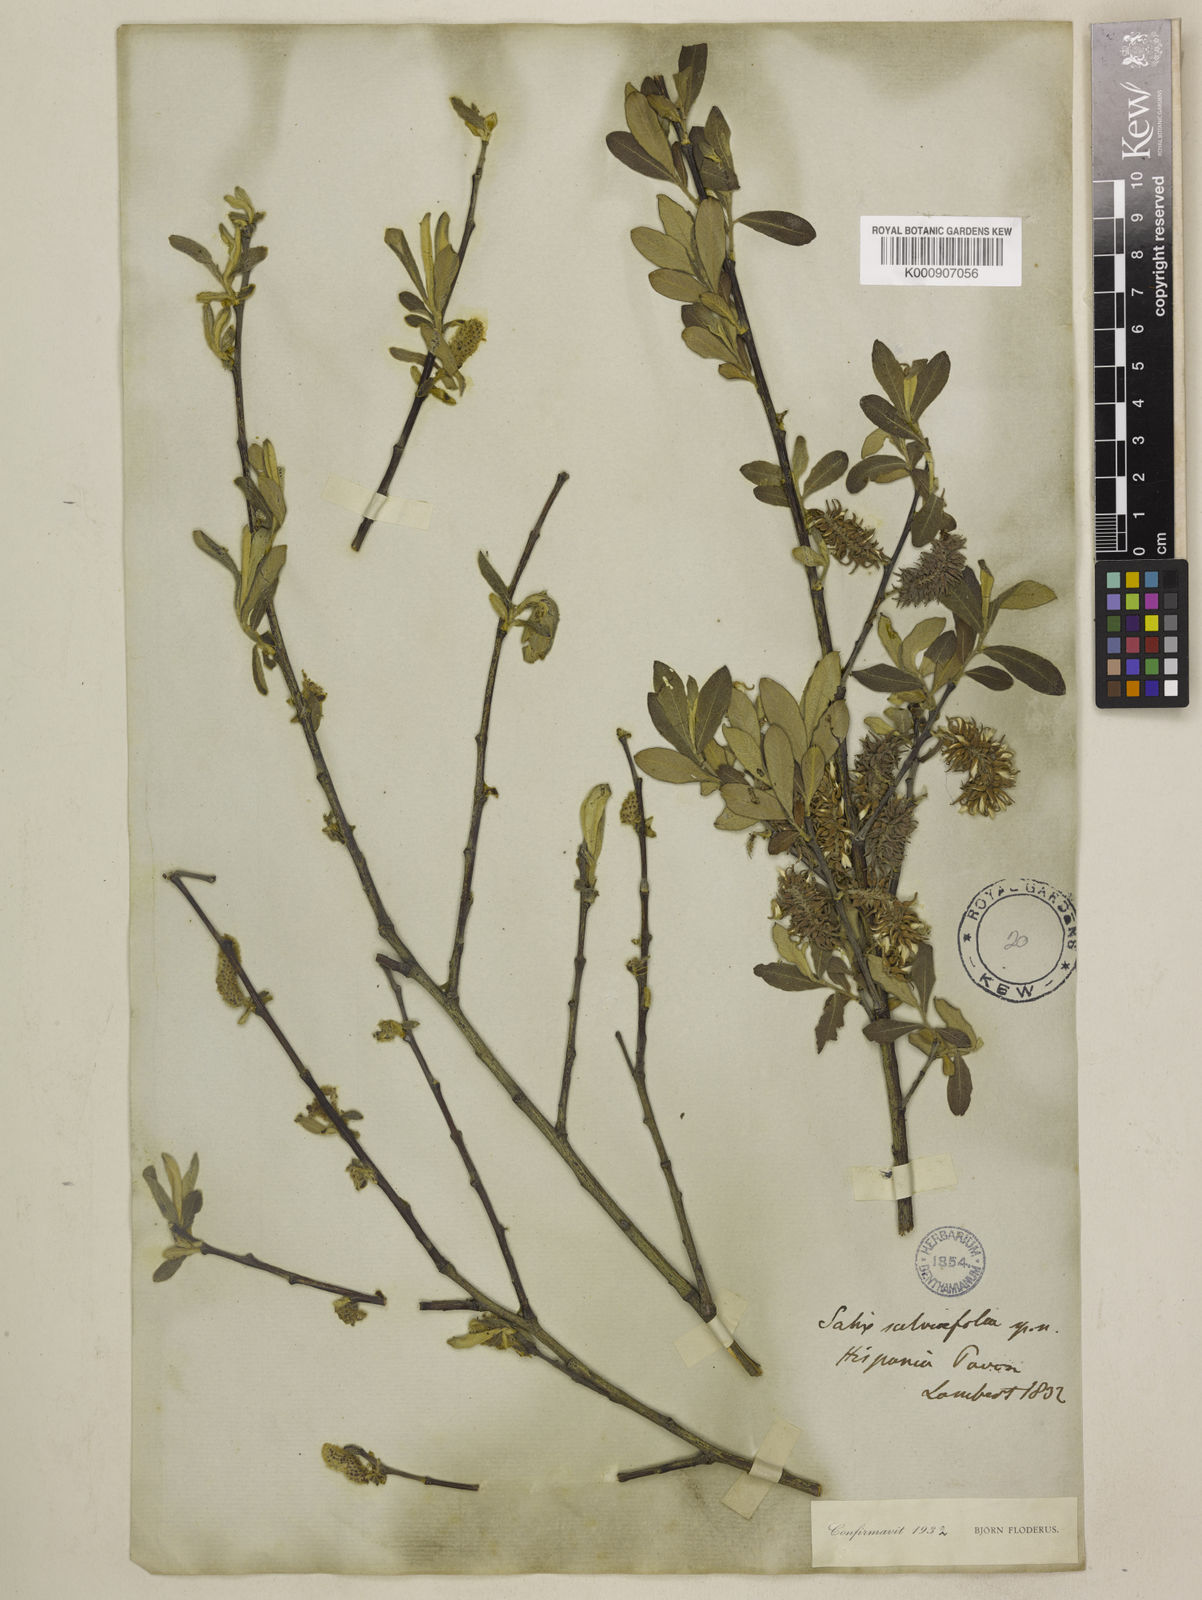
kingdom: Plantae
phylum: Tracheophyta
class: Magnoliopsida
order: Malpighiales
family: Salicaceae
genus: Salix
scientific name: Salix salviifolia
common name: Salvia-leaf willow
